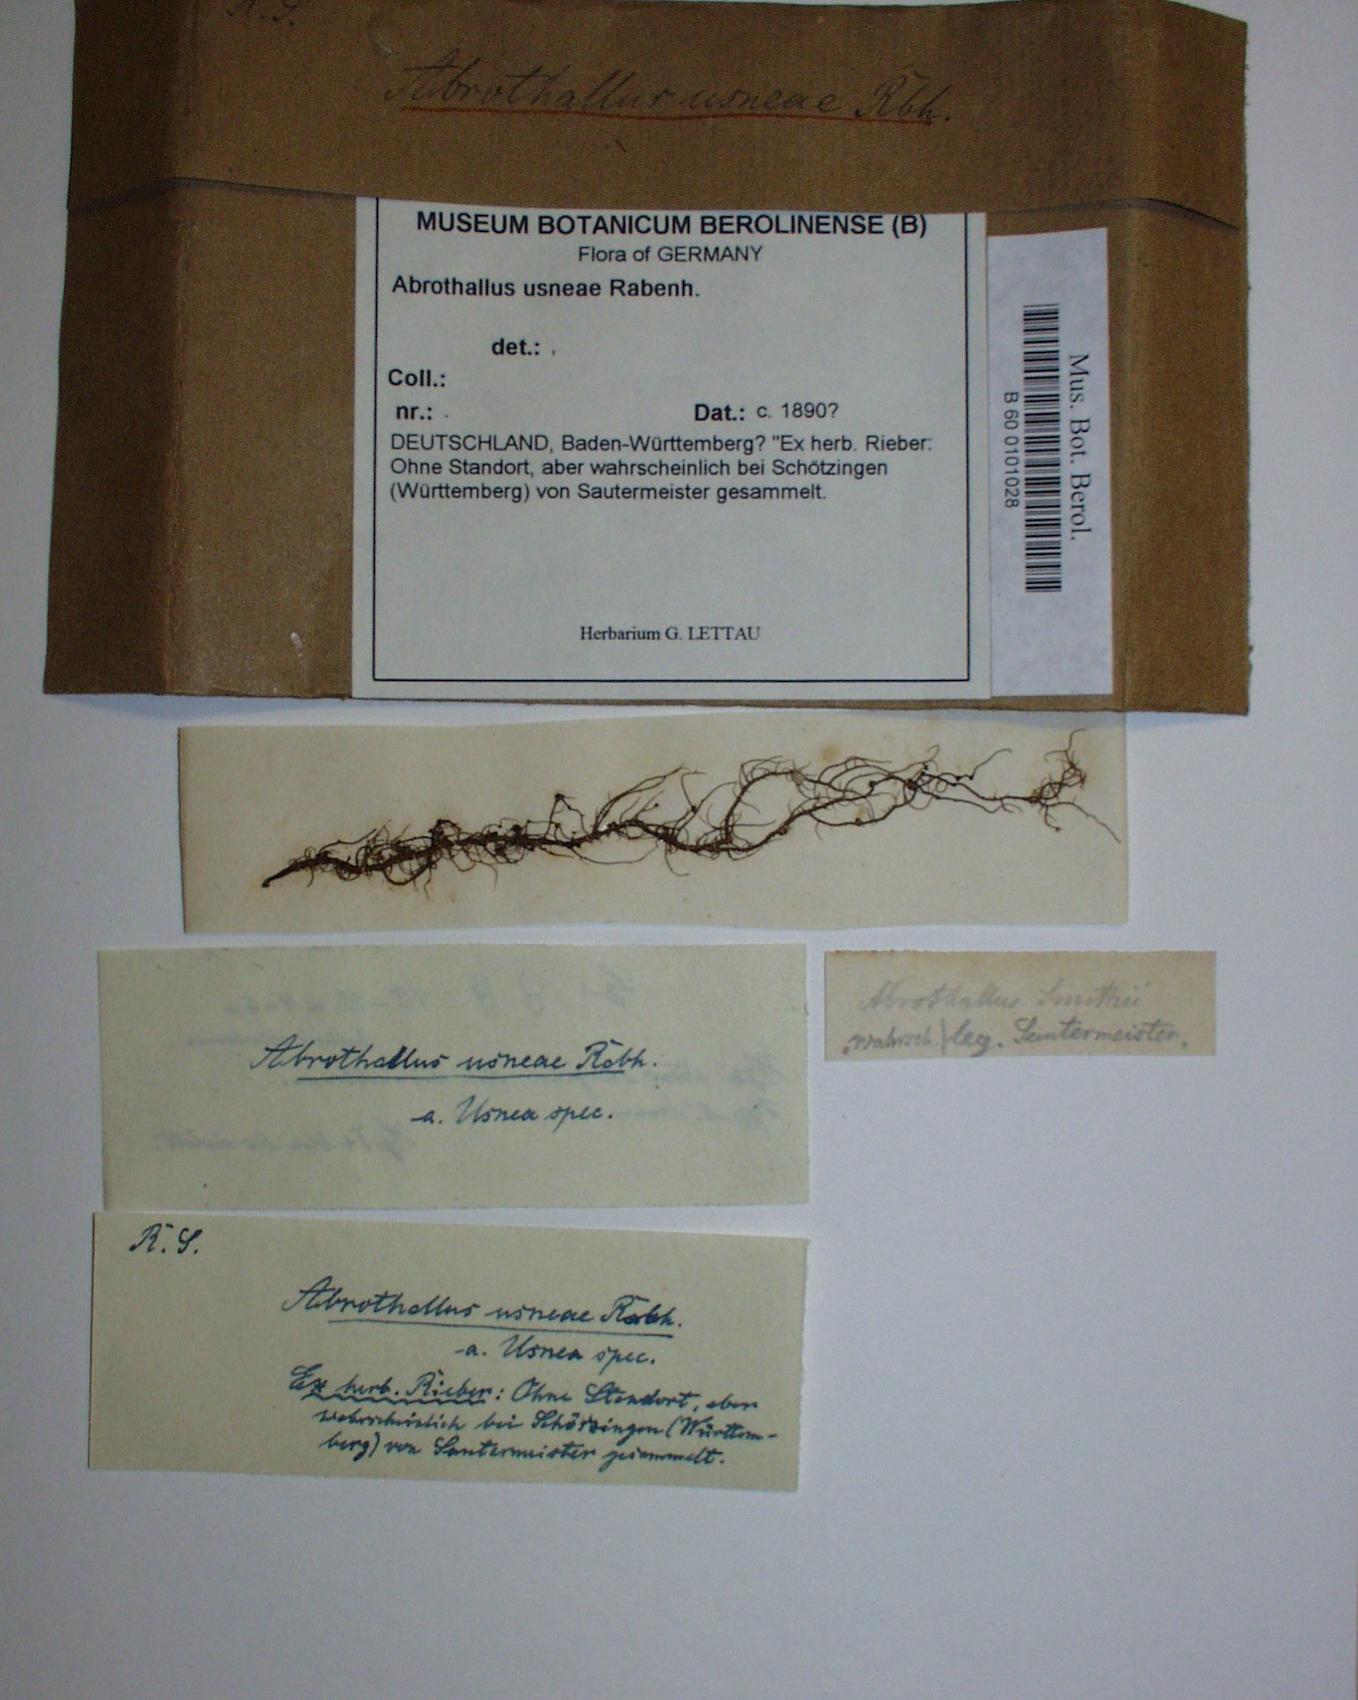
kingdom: Fungi
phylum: Ascomycota
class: Dothideomycetes
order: Abrothallales
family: Abrothallaceae
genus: Abrothallus
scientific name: Abrothallus usneae
